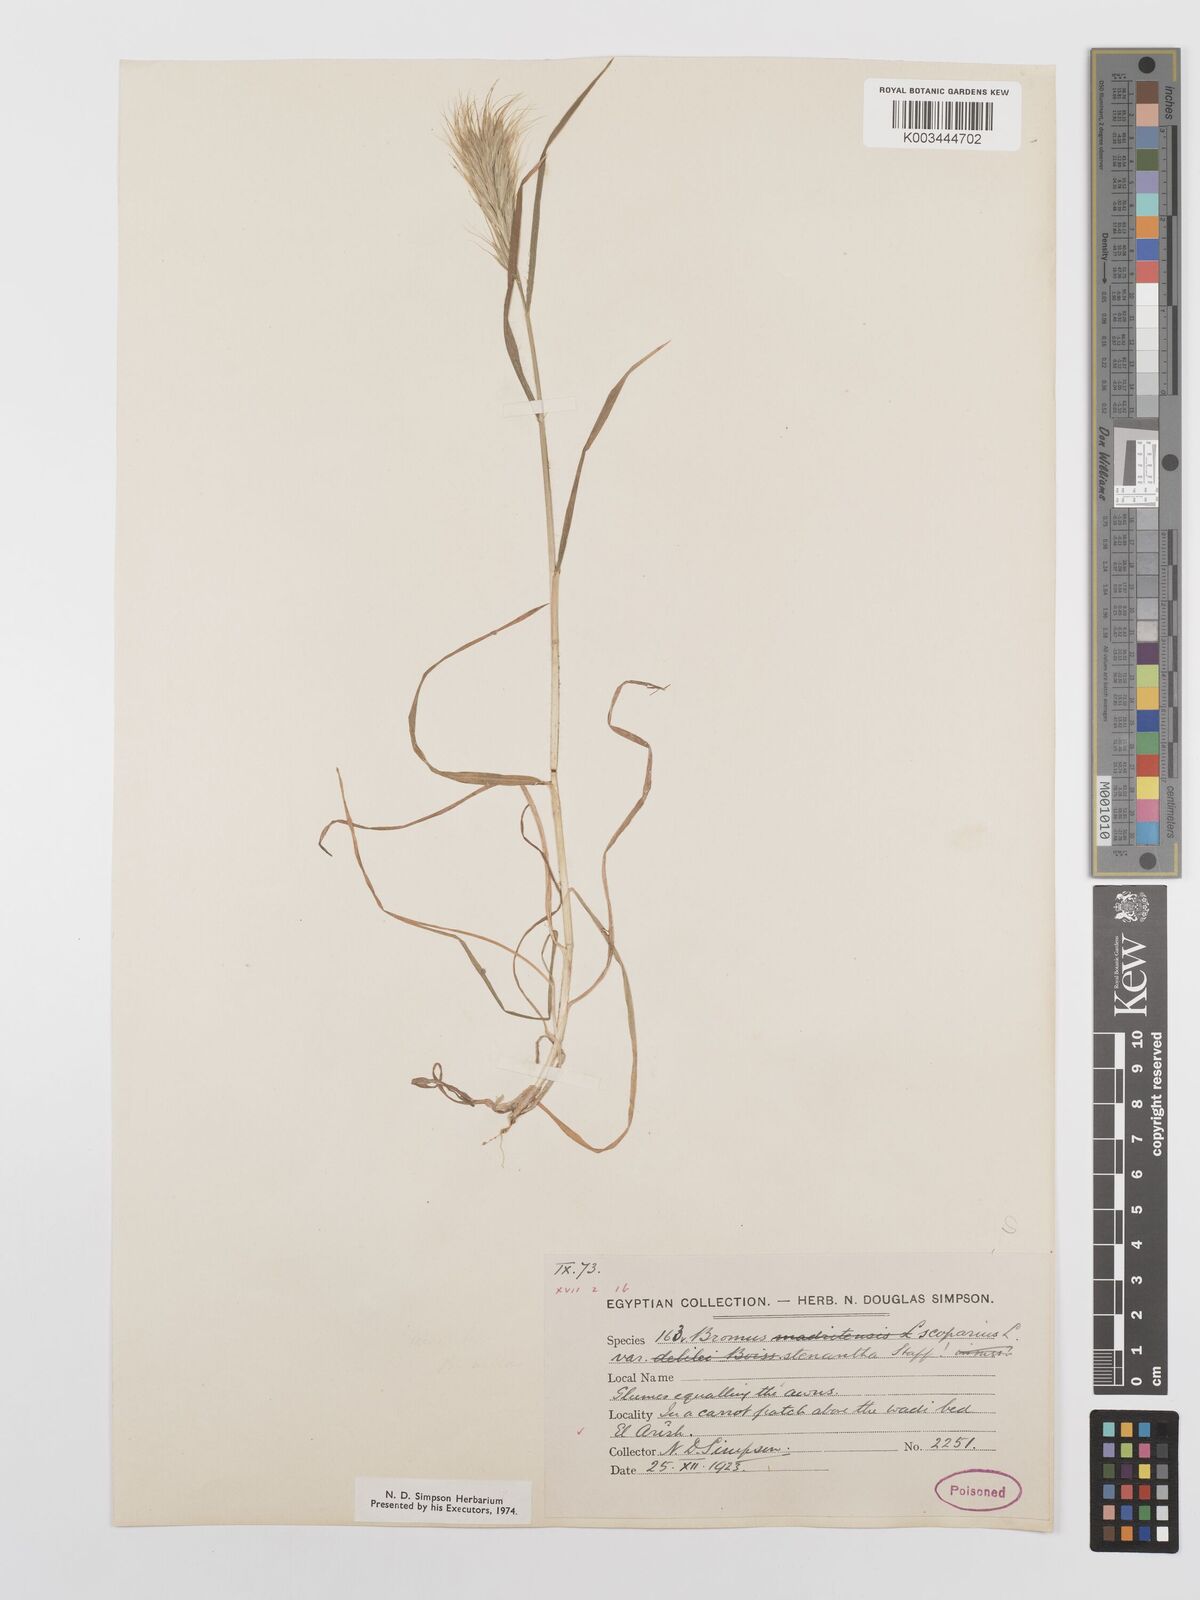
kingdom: Plantae
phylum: Tracheophyta
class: Liliopsida
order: Poales
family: Poaceae
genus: Bromus
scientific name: Bromus scoparius
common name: Broom brome
